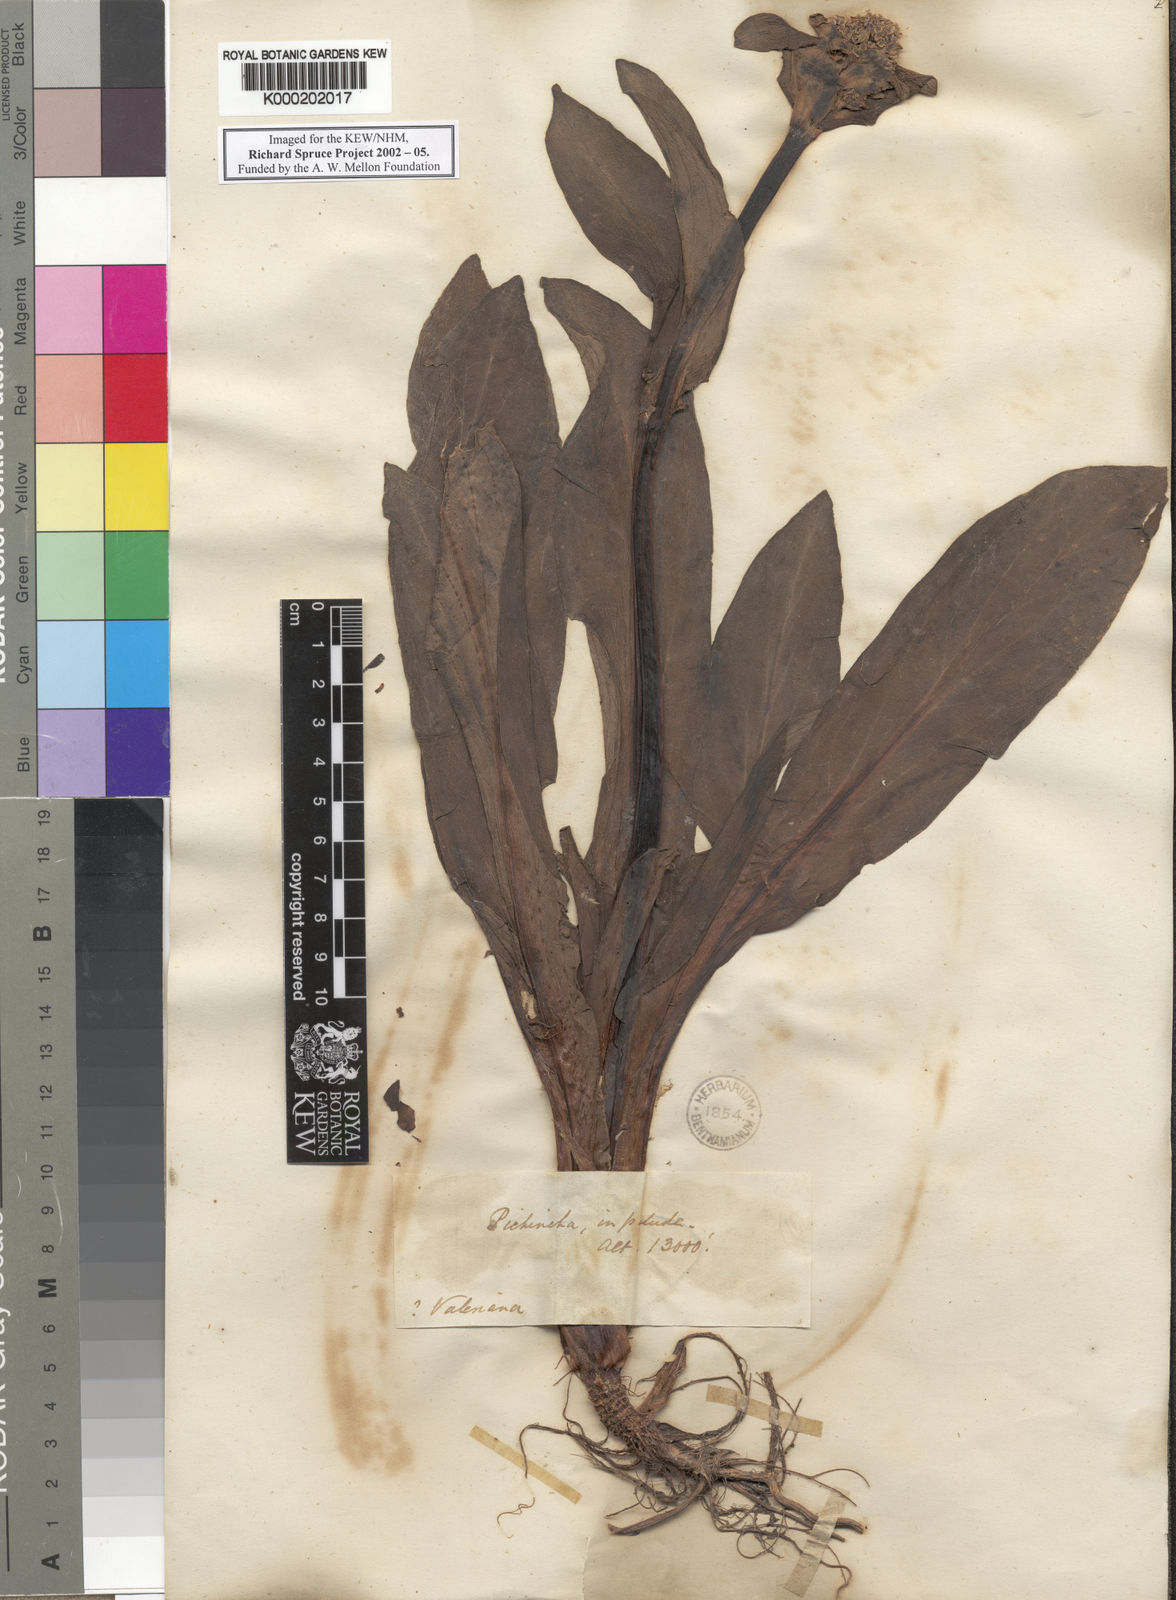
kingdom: Plantae
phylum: Tracheophyta
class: Magnoliopsida
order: Dipsacales
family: Caprifoliaceae
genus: Valeriana
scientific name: Valeriana pilosa
